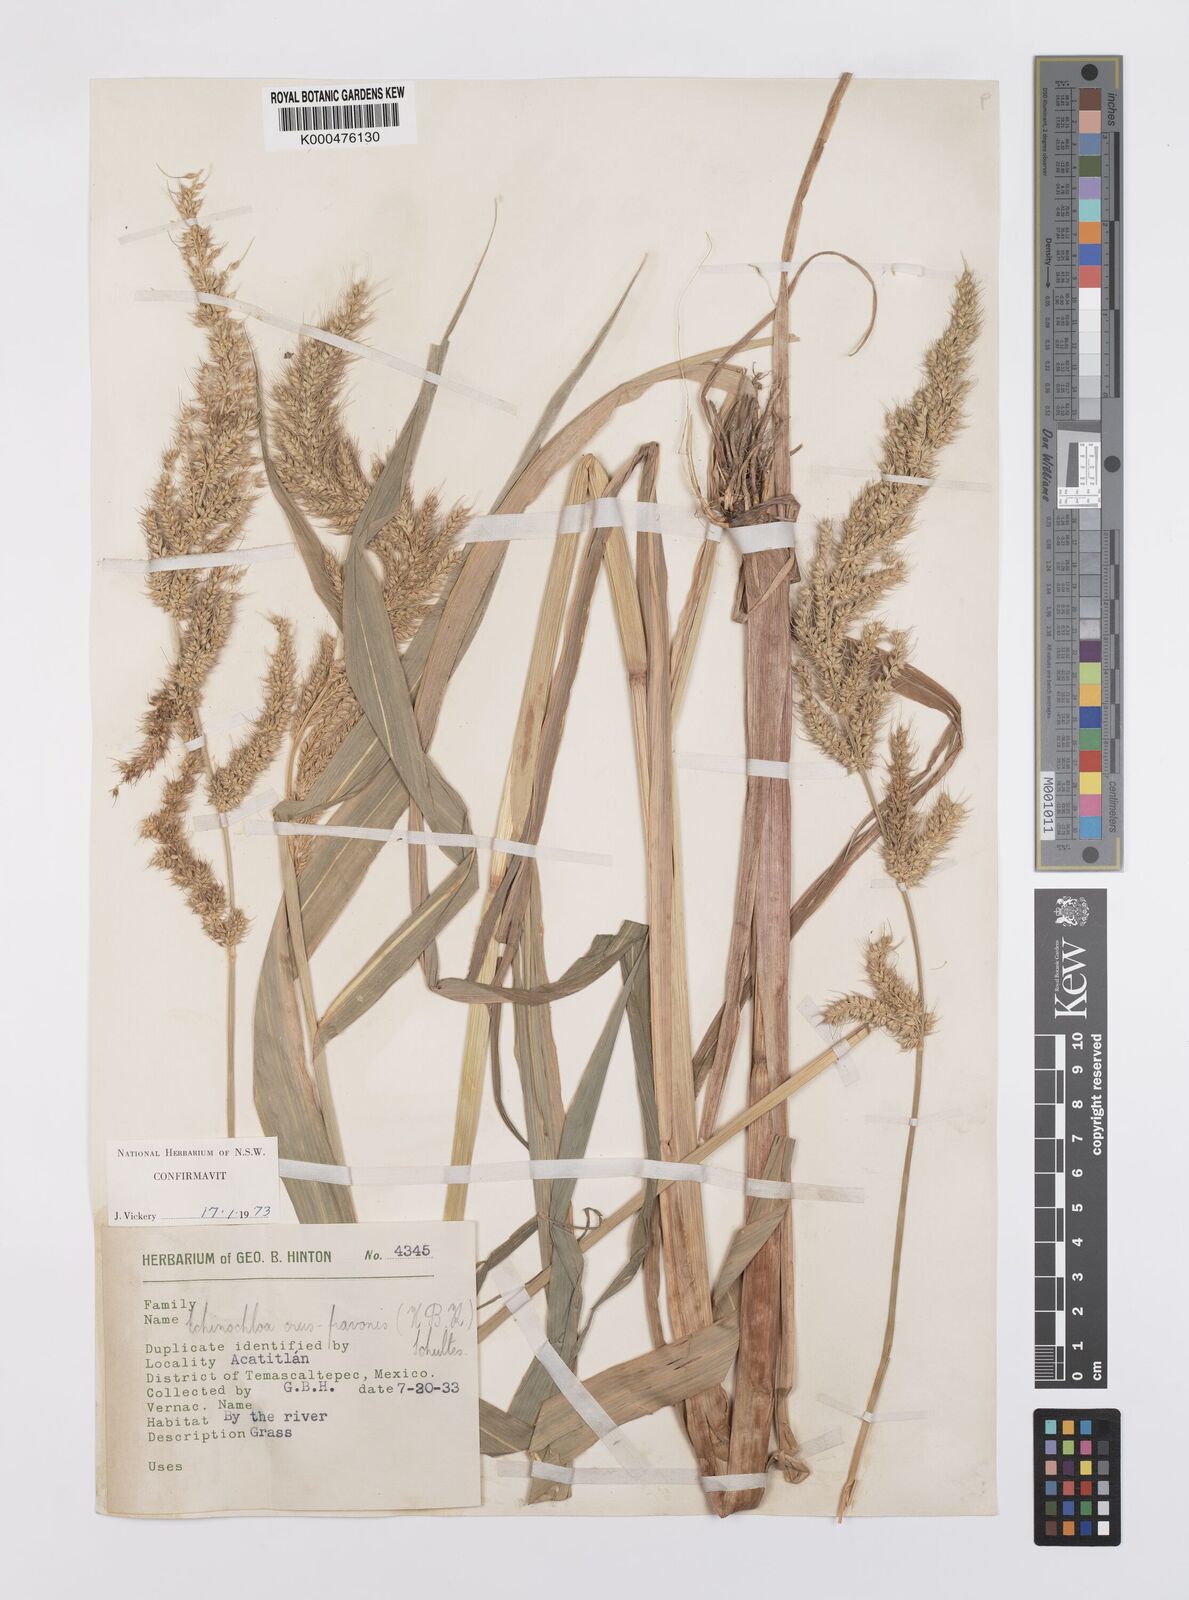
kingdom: Plantae
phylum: Tracheophyta
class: Liliopsida
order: Poales
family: Poaceae
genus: Echinochloa
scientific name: Echinochloa crus-pavonis
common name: Gulf cockspur grass
